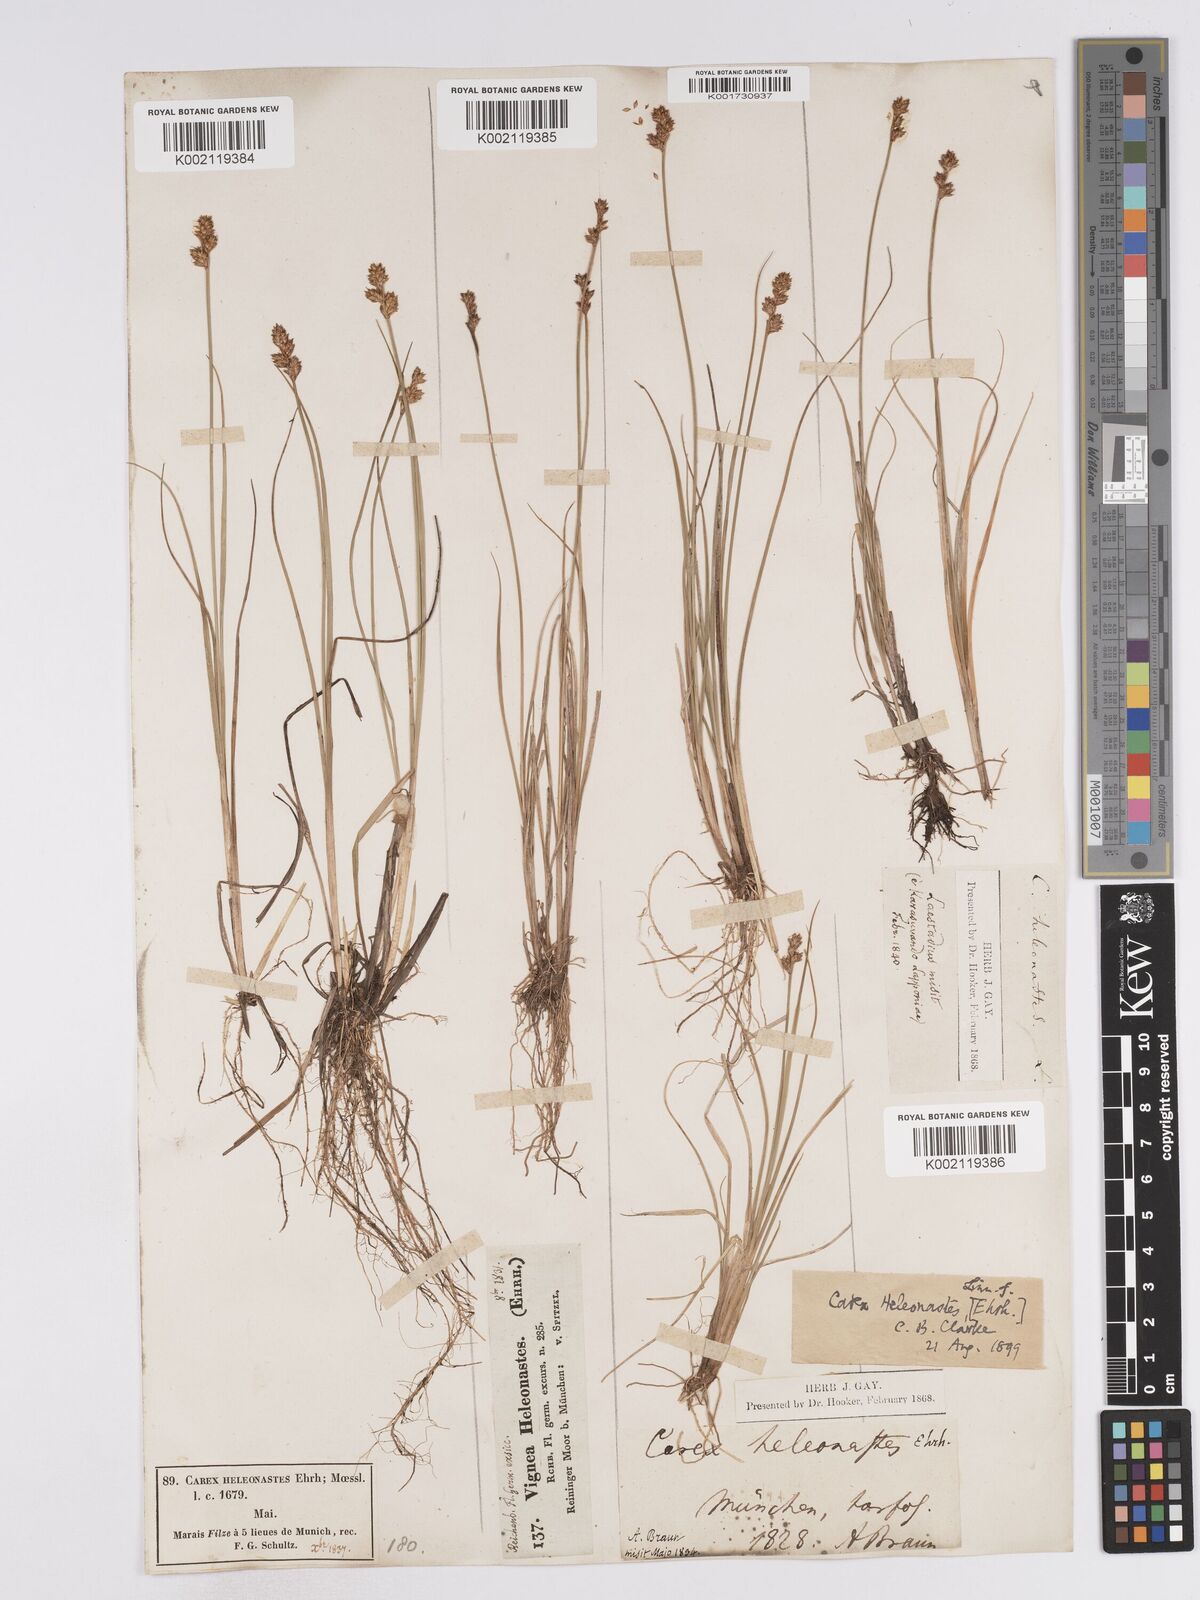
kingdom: Plantae
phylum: Tracheophyta
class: Liliopsida
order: Poales
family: Cyperaceae
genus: Carex
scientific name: Carex heleonastes
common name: Hudson bay sedge
